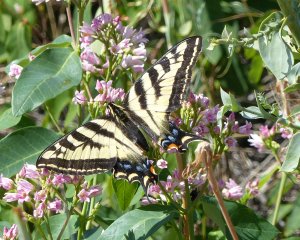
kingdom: Animalia
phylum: Arthropoda
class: Insecta
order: Lepidoptera
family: Papilionidae
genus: Pterourus
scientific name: Pterourus rutulus
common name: Western Tiger Swallowtail
